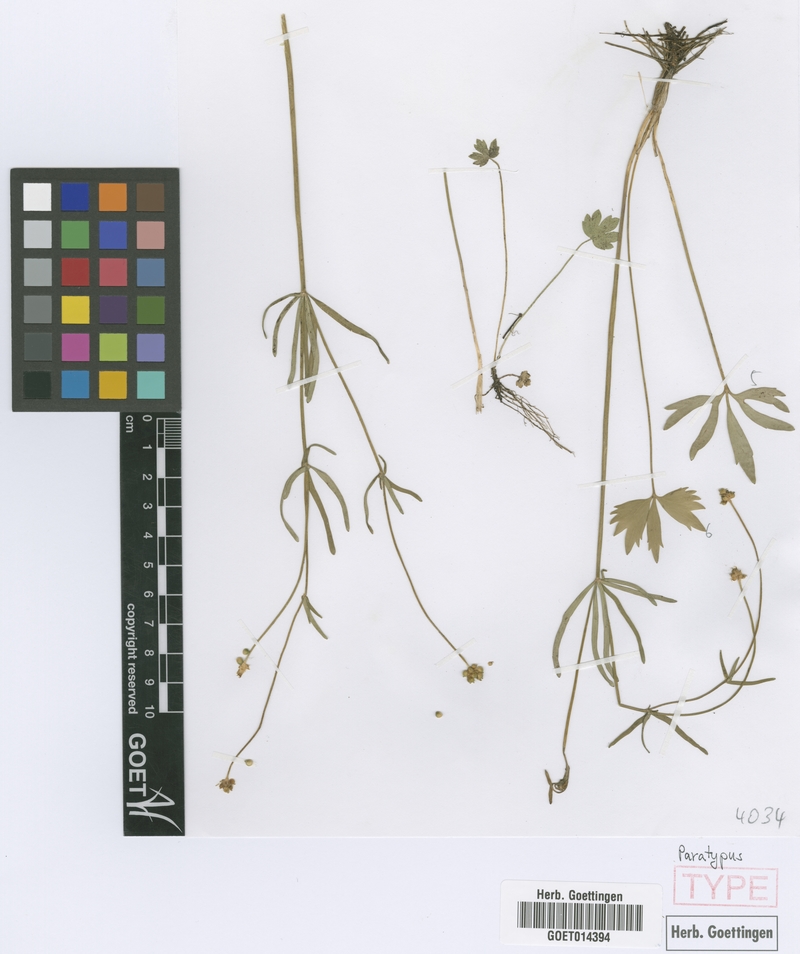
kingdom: Plantae
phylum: Tracheophyta
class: Magnoliopsida
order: Ranunculales
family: Ranunculaceae
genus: Ranunculus
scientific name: Ranunculus noricus
